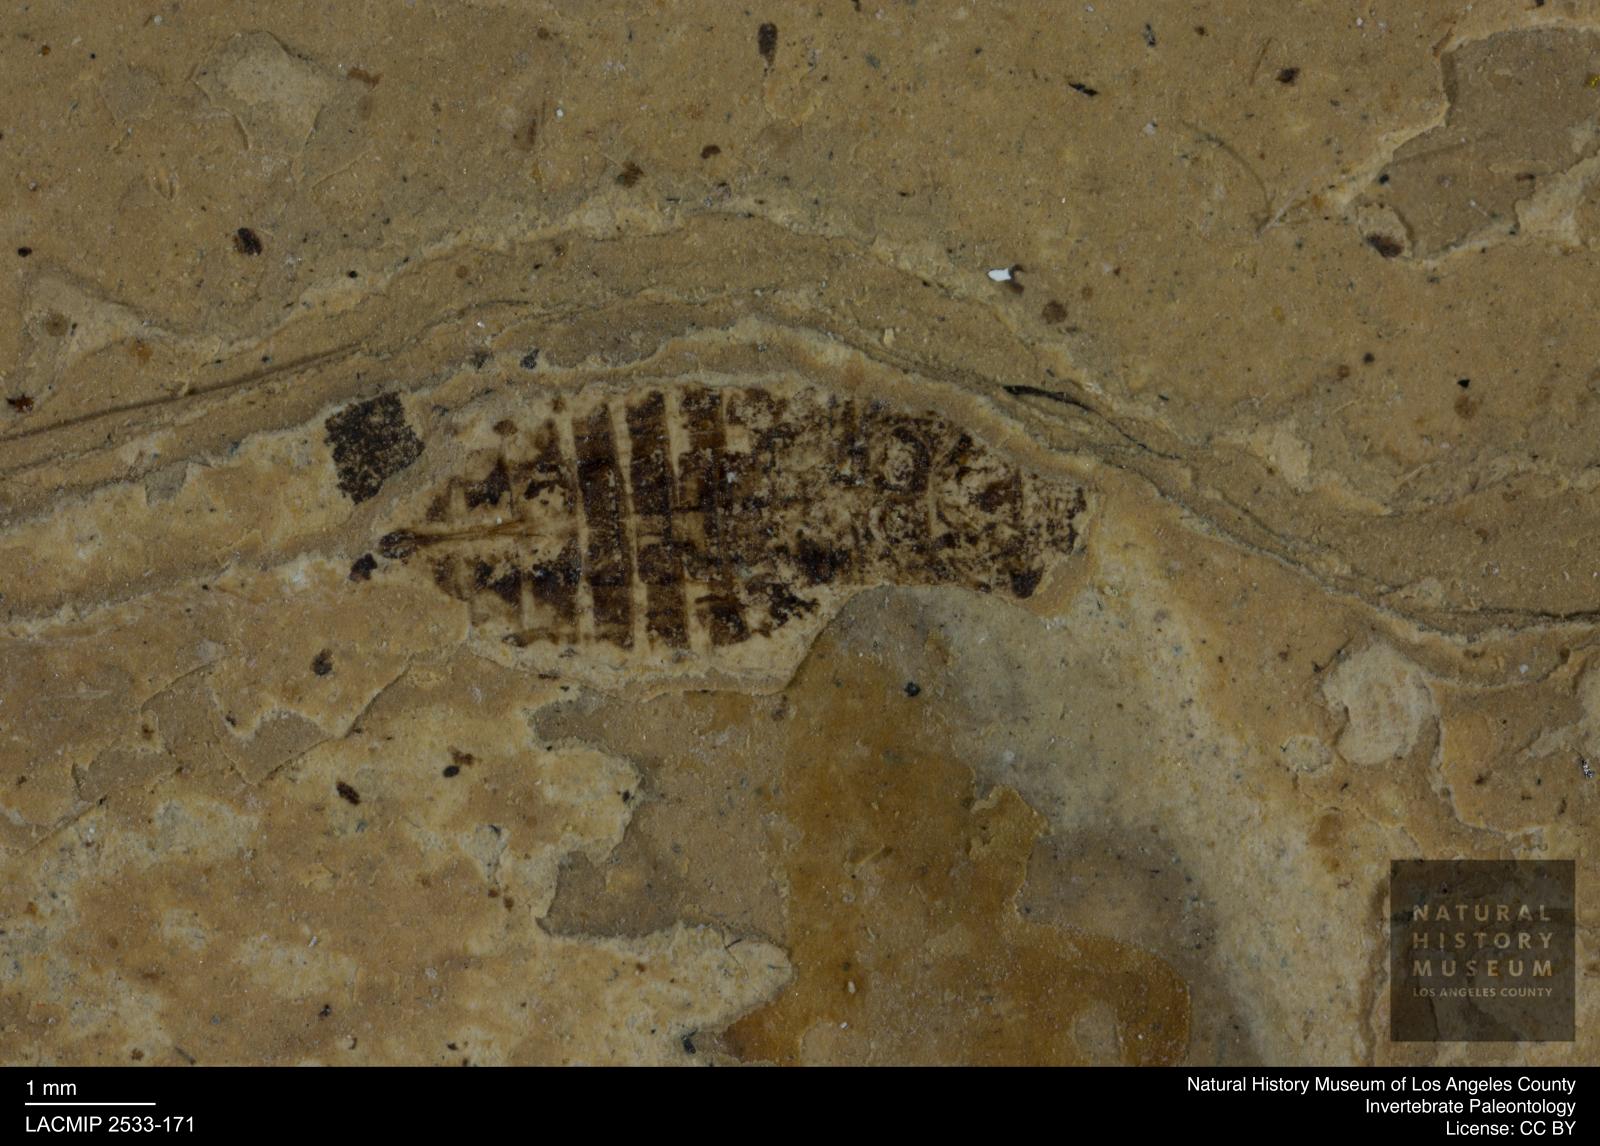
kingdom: Animalia
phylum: Arthropoda
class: Insecta
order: Hemiptera
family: Cicadellidae
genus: Euscelis
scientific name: Euscelis plateosa
